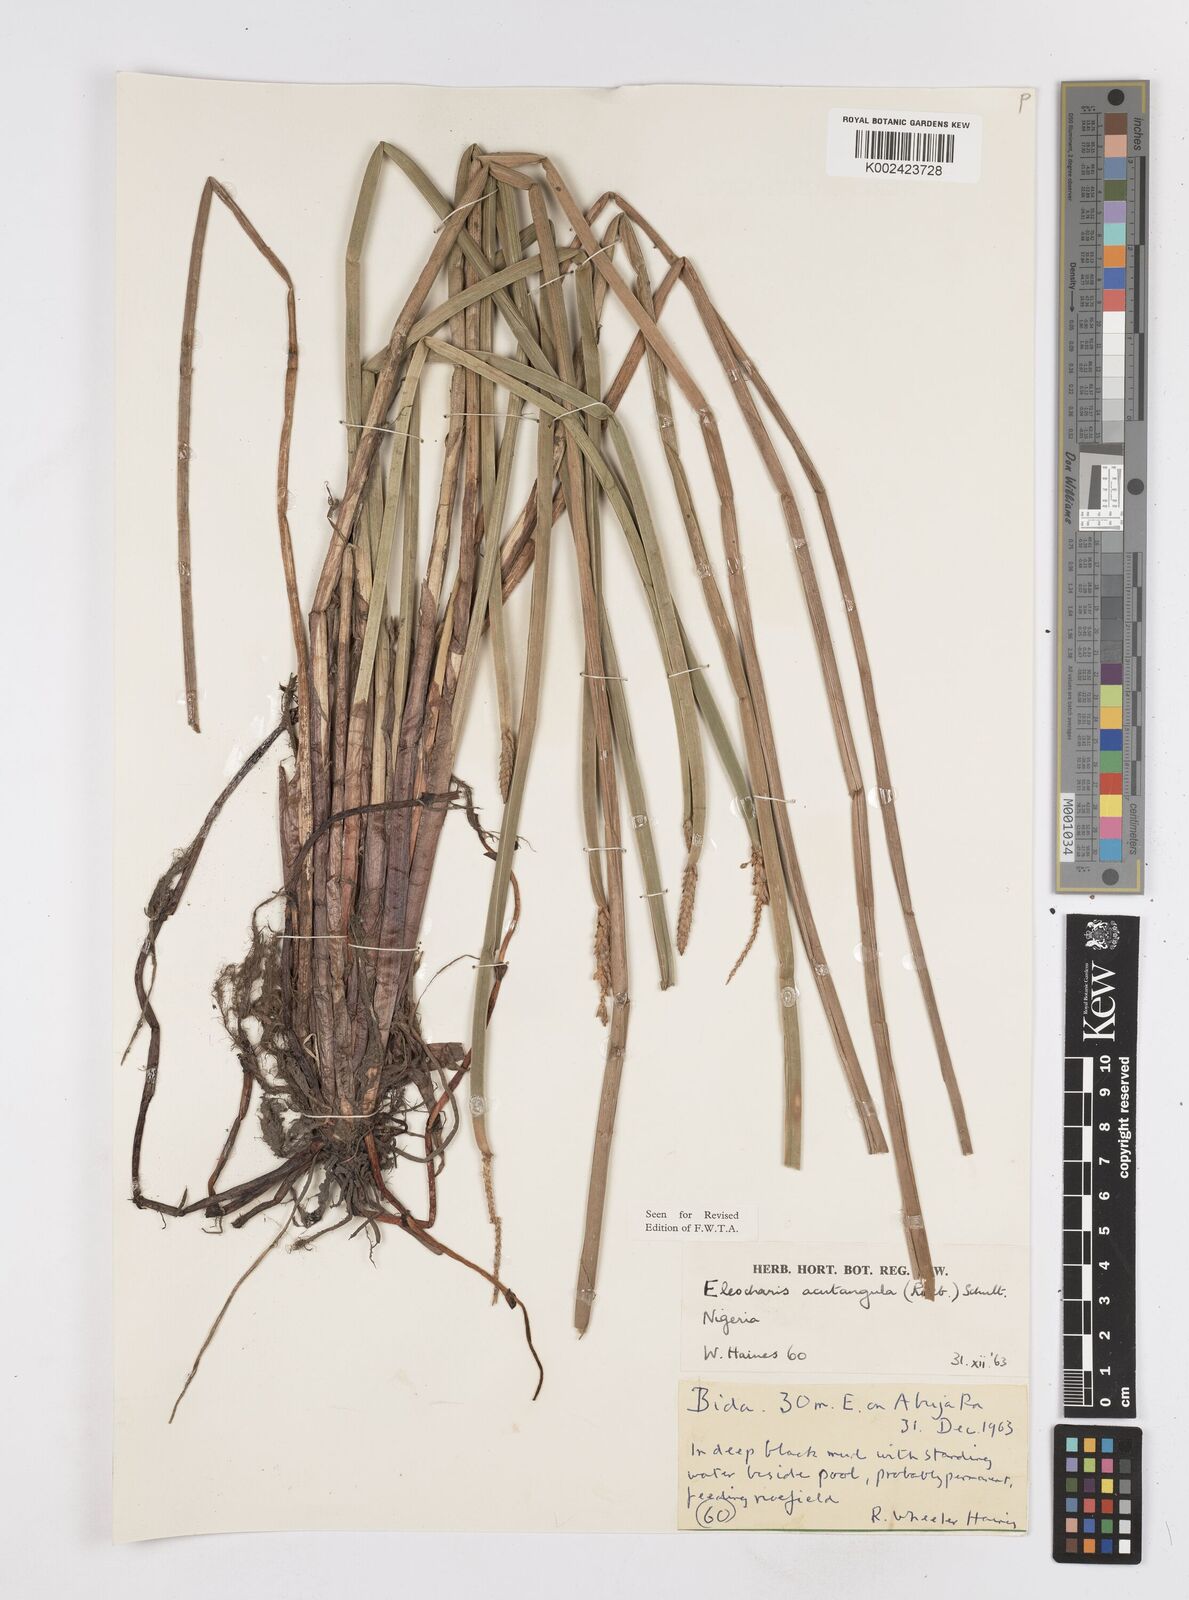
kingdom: Plantae
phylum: Tracheophyta
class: Liliopsida
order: Poales
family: Cyperaceae
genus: Eleocharis
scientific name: Eleocharis acutangula
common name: Acute spikerush
